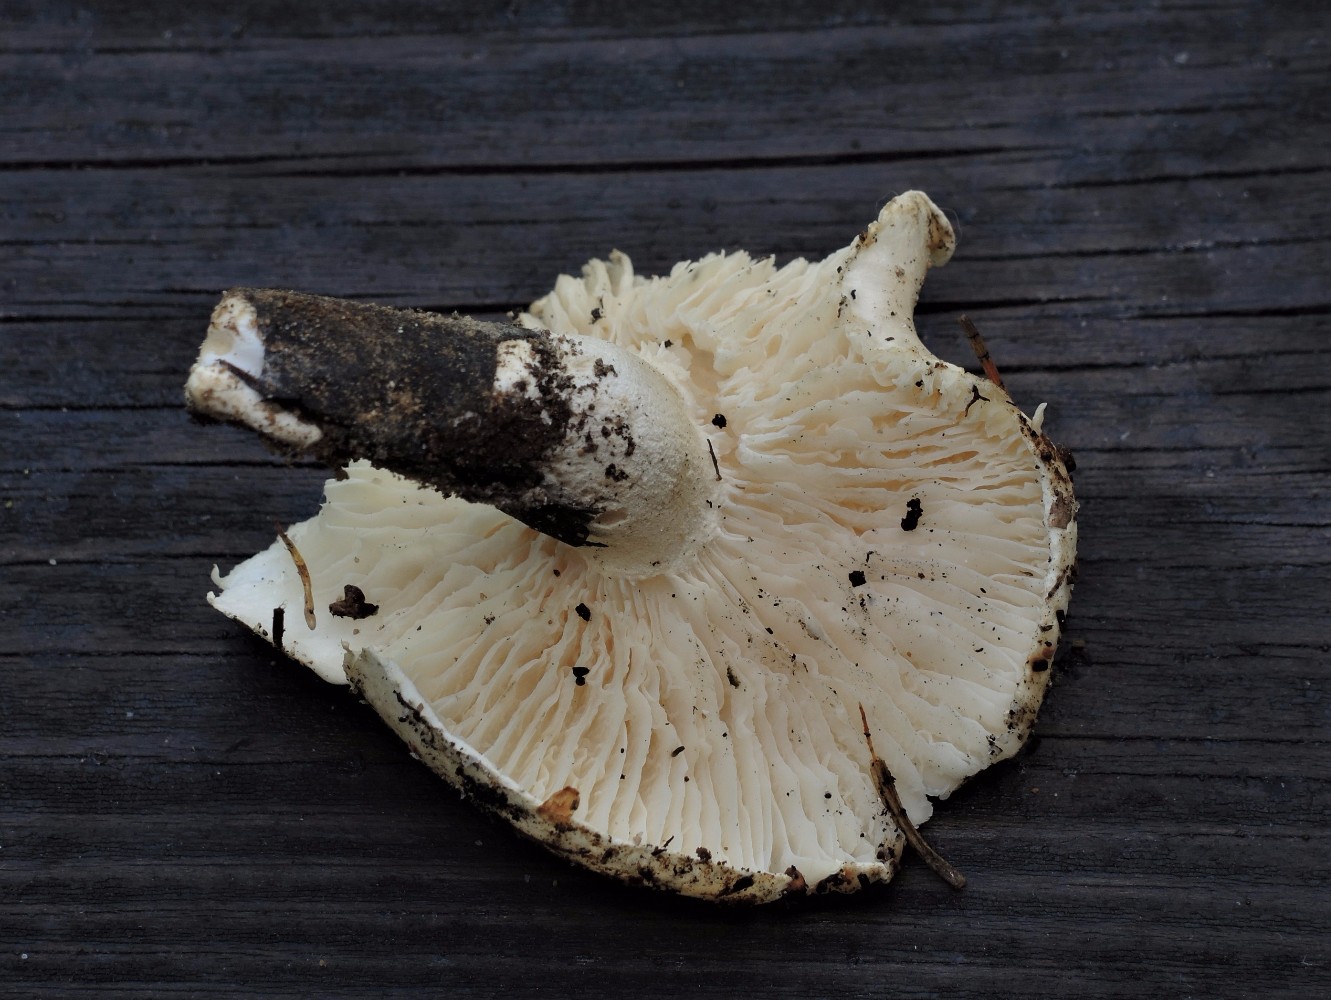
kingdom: Fungi
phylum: Basidiomycota
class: Agaricomycetes
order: Agaricales
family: Hygrophoraceae
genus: Hygrophorus
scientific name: Hygrophorus penarius
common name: spiselig sneglehat
